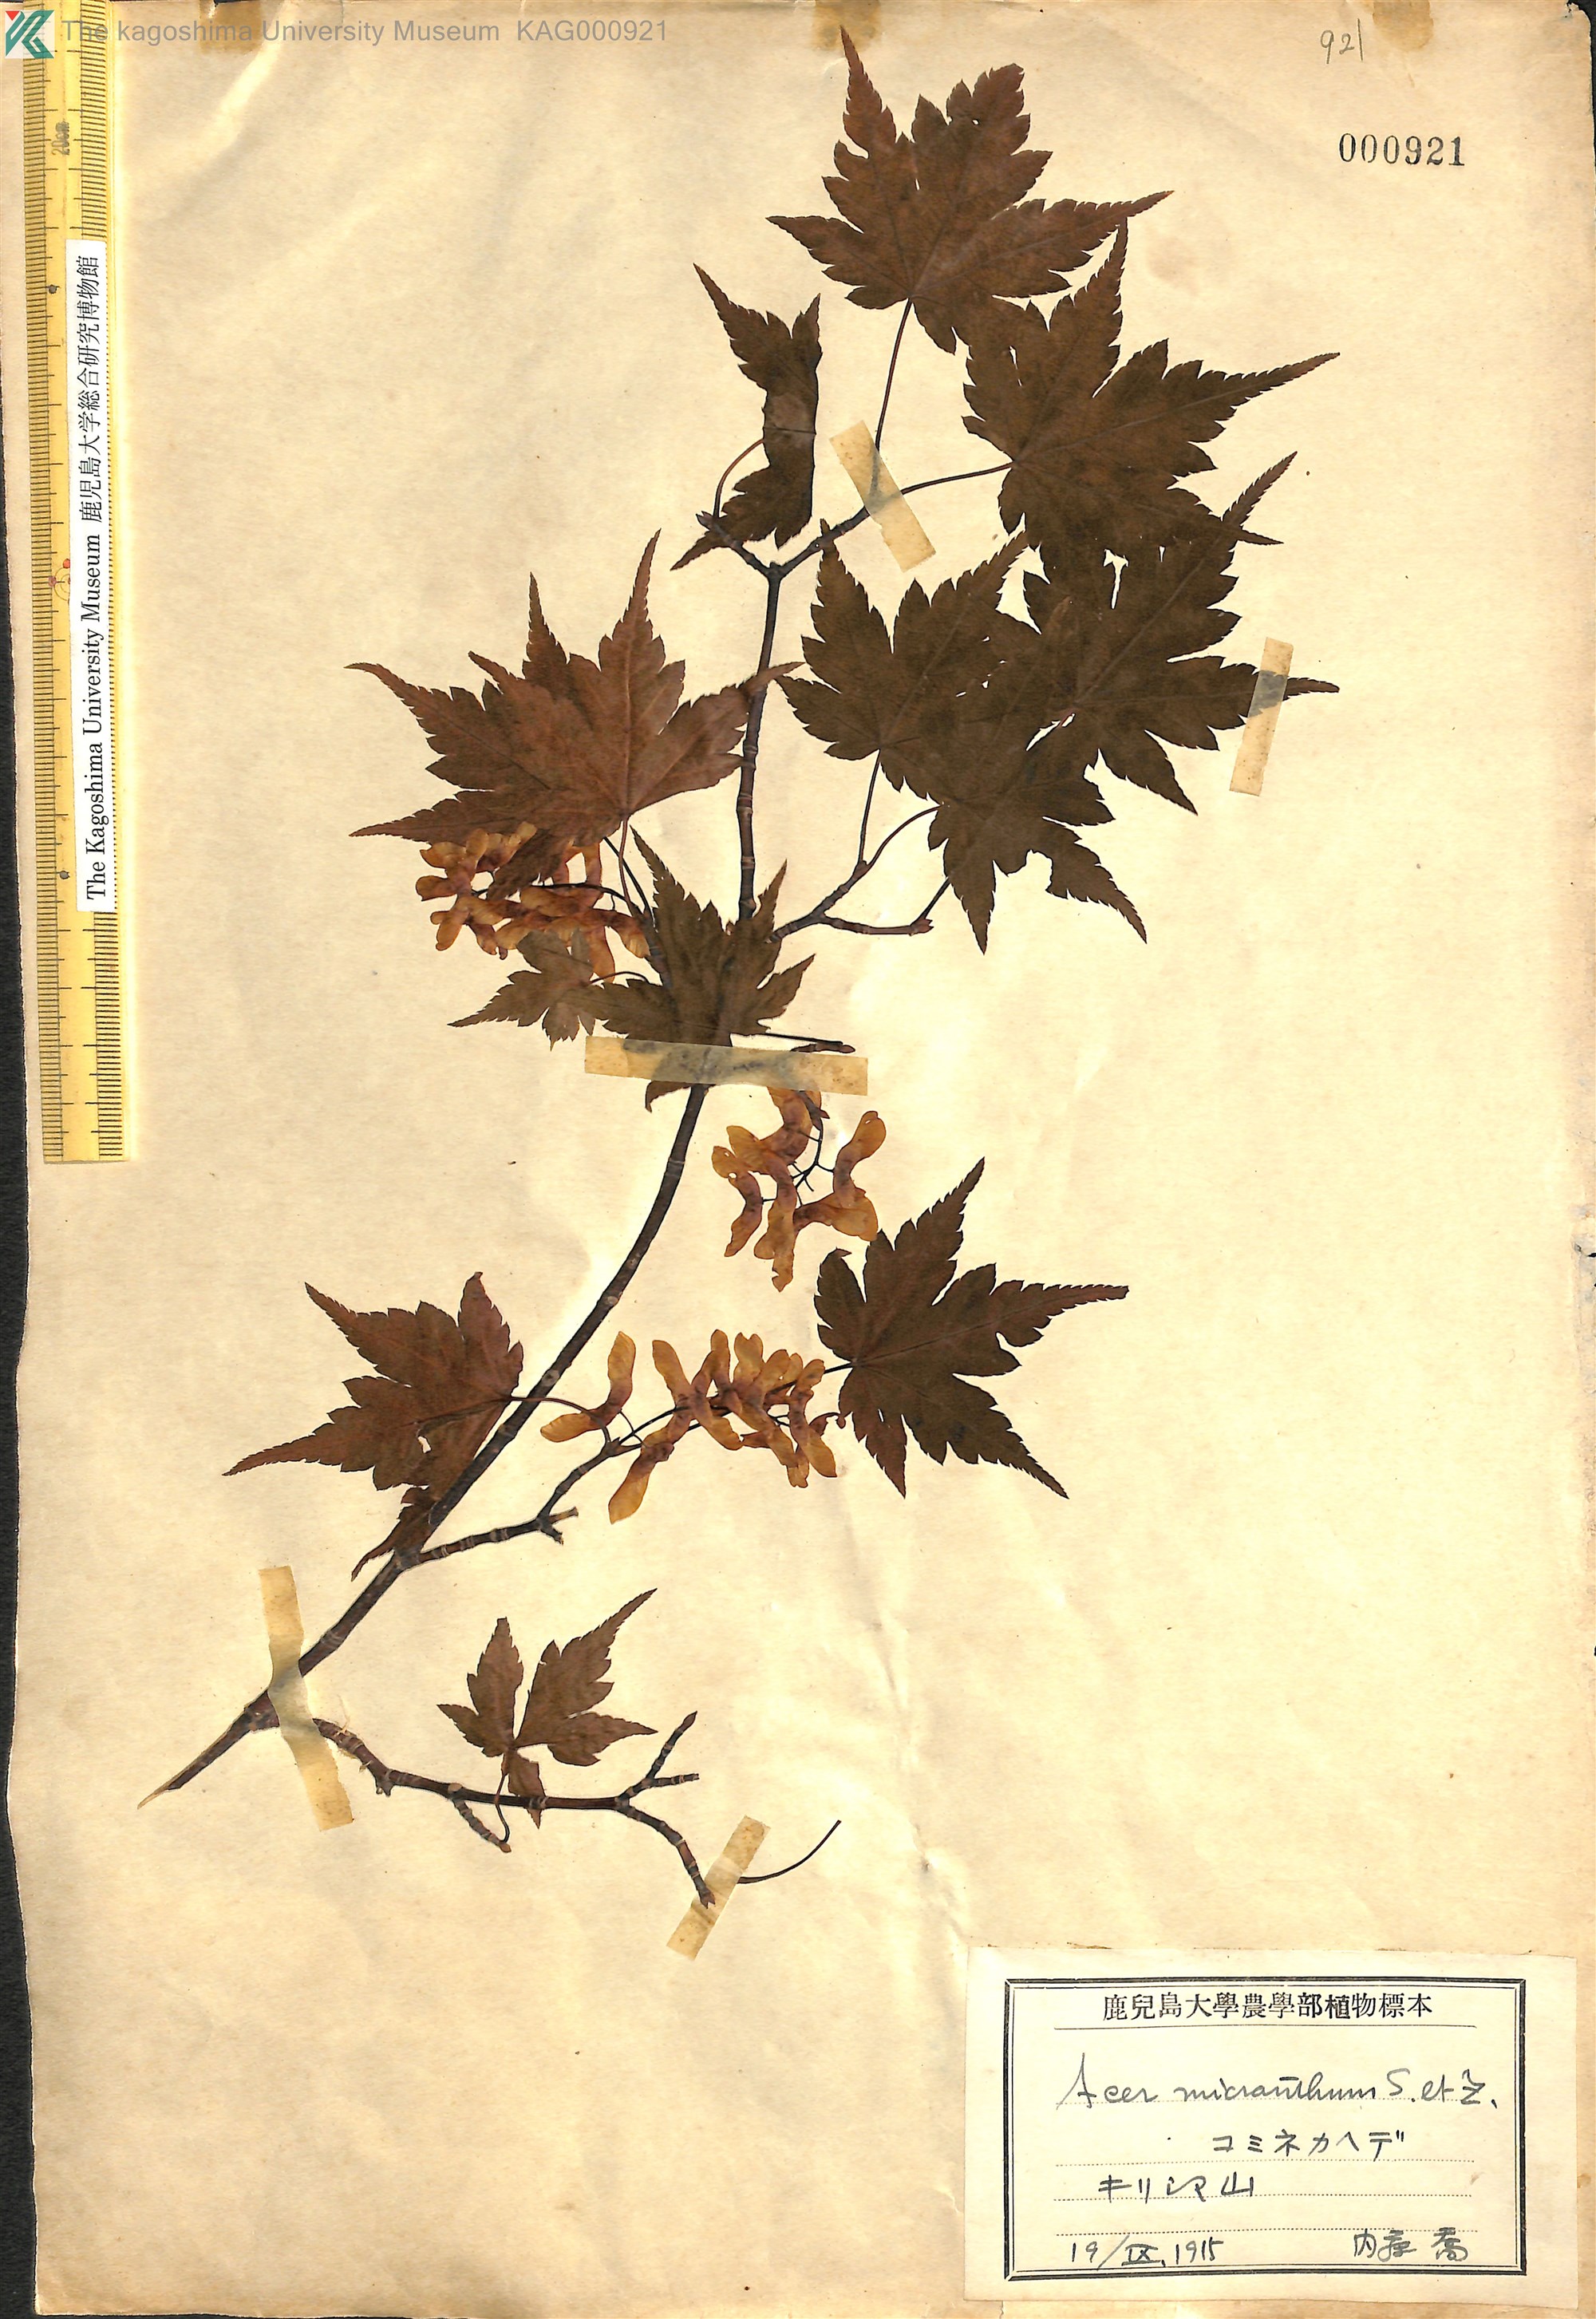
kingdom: Plantae
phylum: Tracheophyta
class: Magnoliopsida
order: Sapindales
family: Sapindaceae
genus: Acer
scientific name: Acer micranthum
